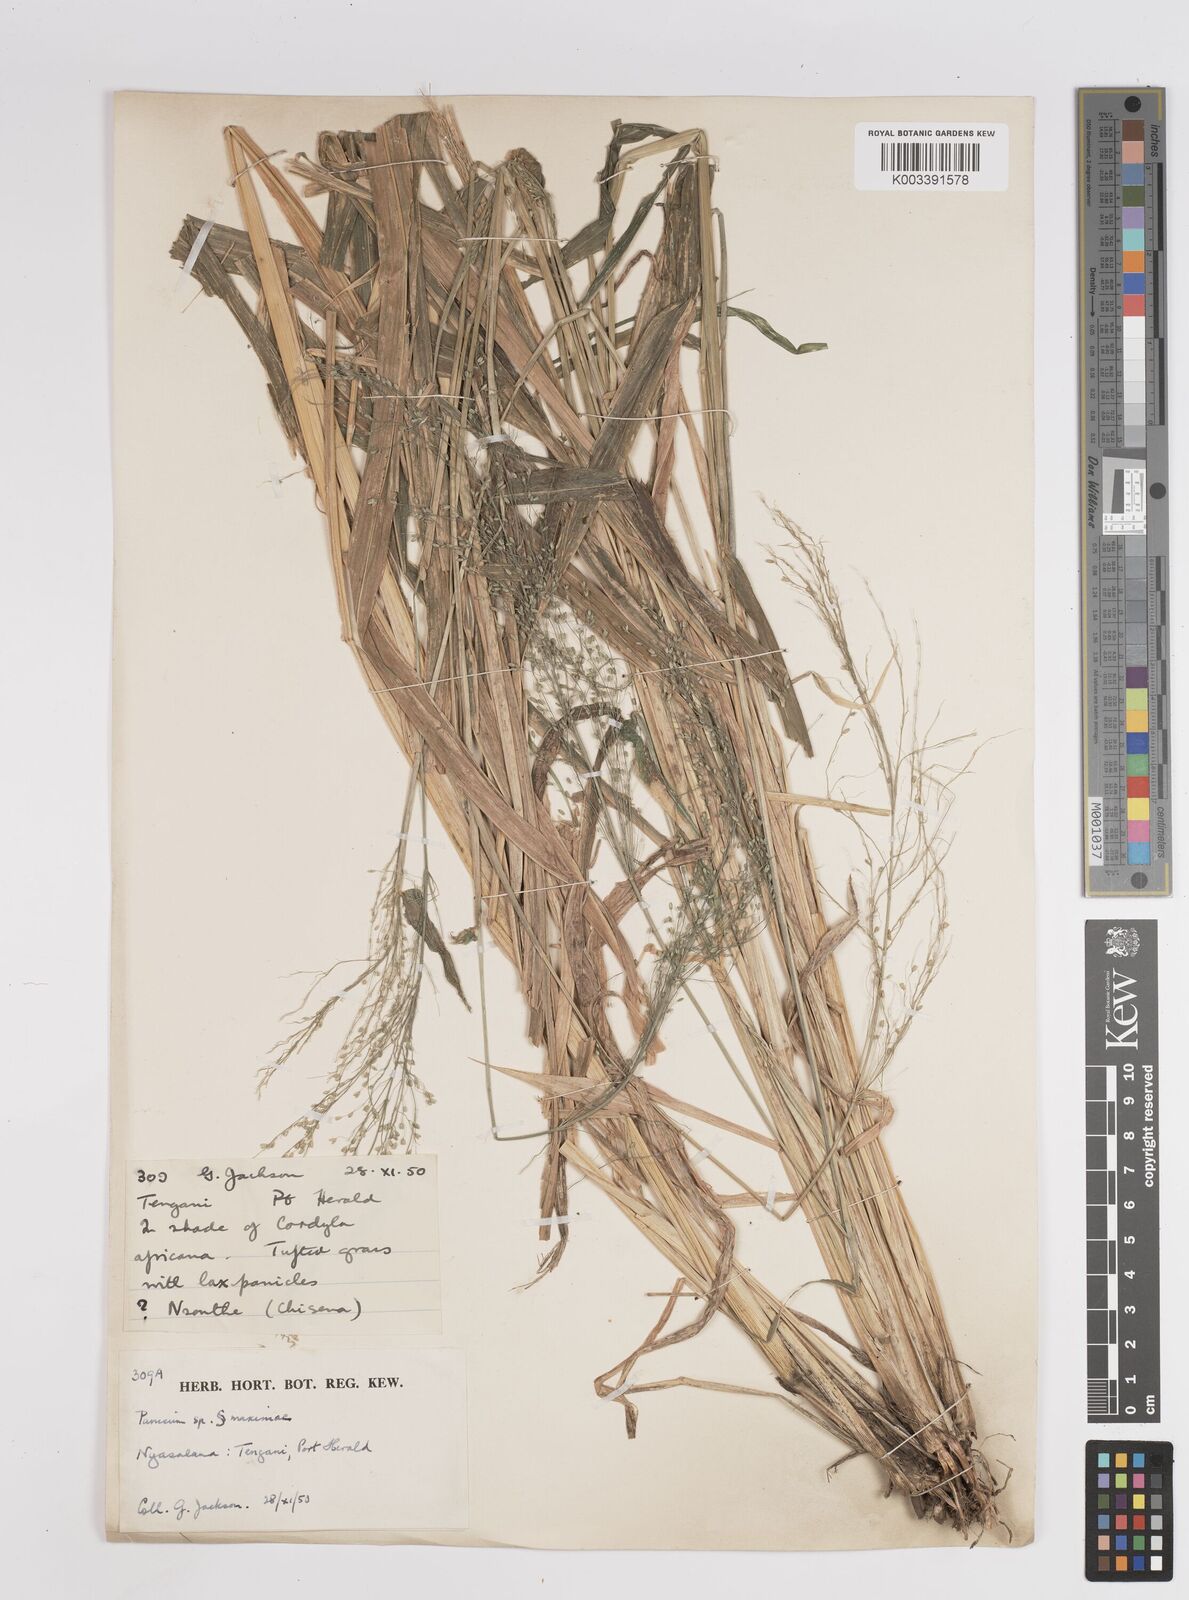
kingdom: Plantae
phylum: Tracheophyta
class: Liliopsida
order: Poales
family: Poaceae
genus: Megathyrsus
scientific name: Megathyrsus maximus
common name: Guineagrass
